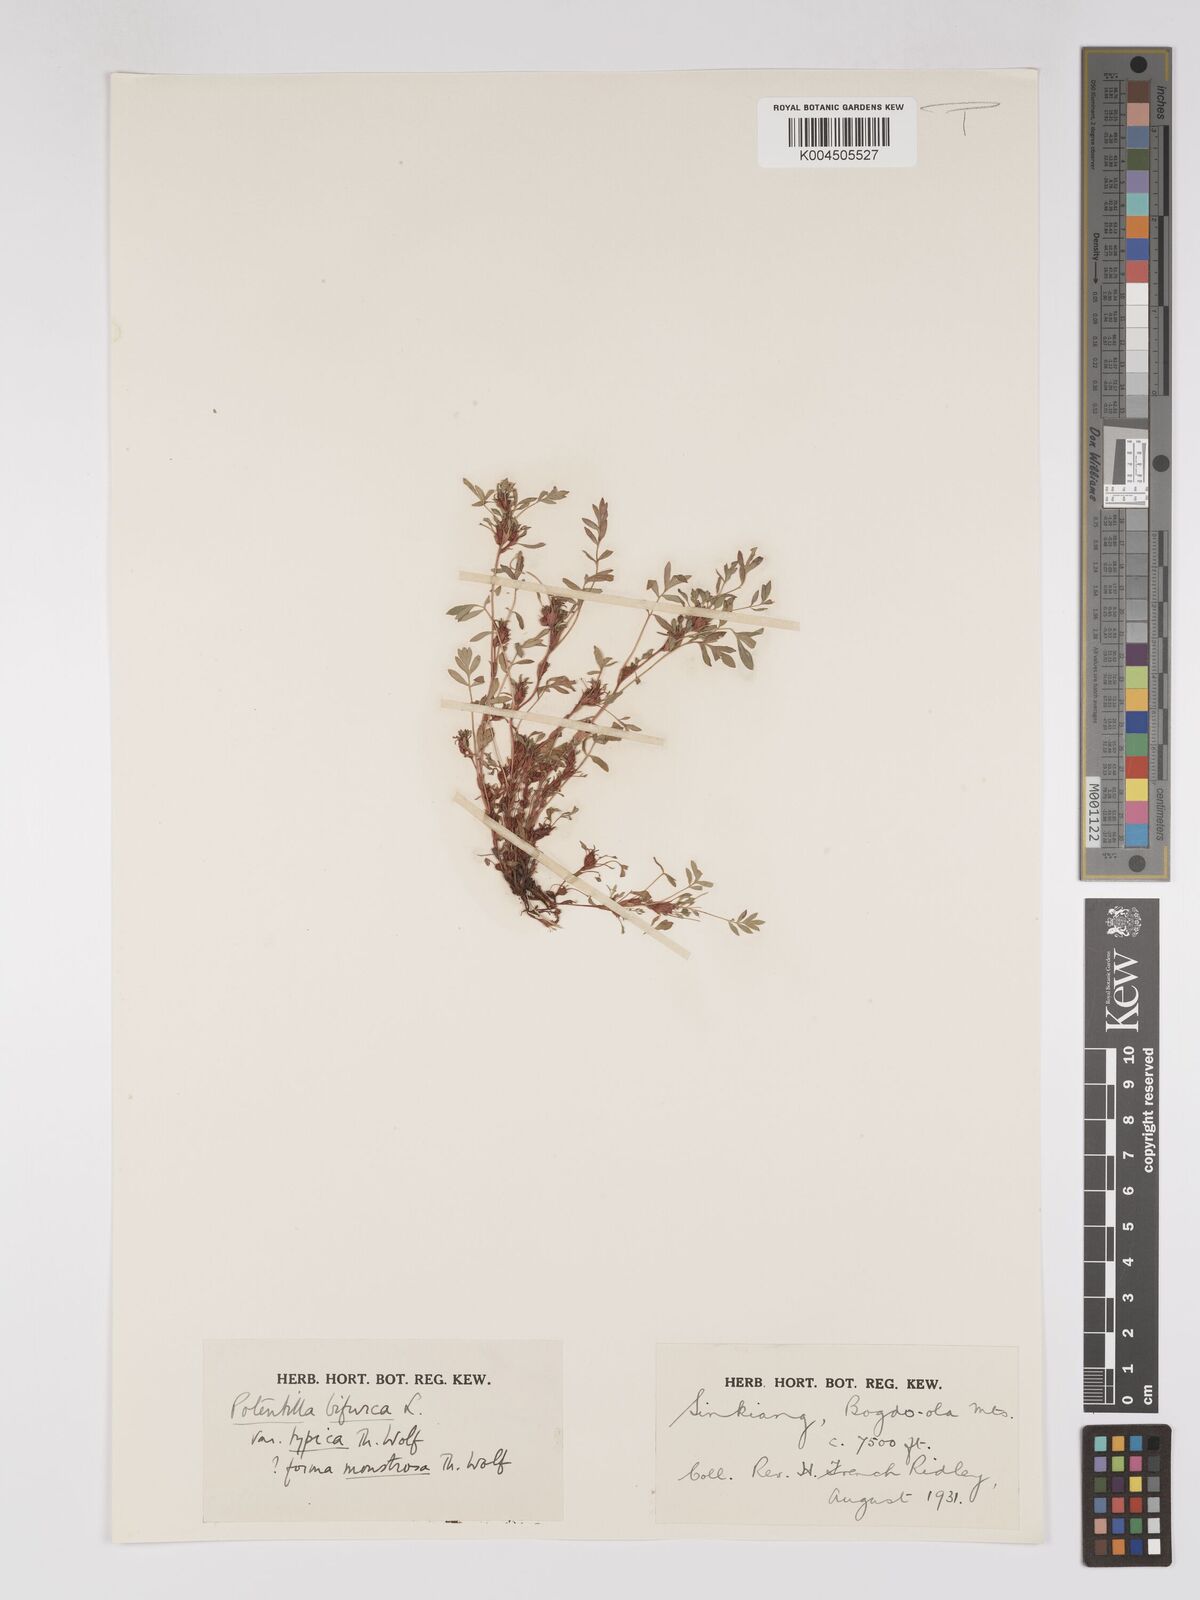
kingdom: Plantae
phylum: Tracheophyta
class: Magnoliopsida
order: Rosales
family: Rosaceae
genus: Sibbaldianthe
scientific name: Sibbaldianthe bifurca
